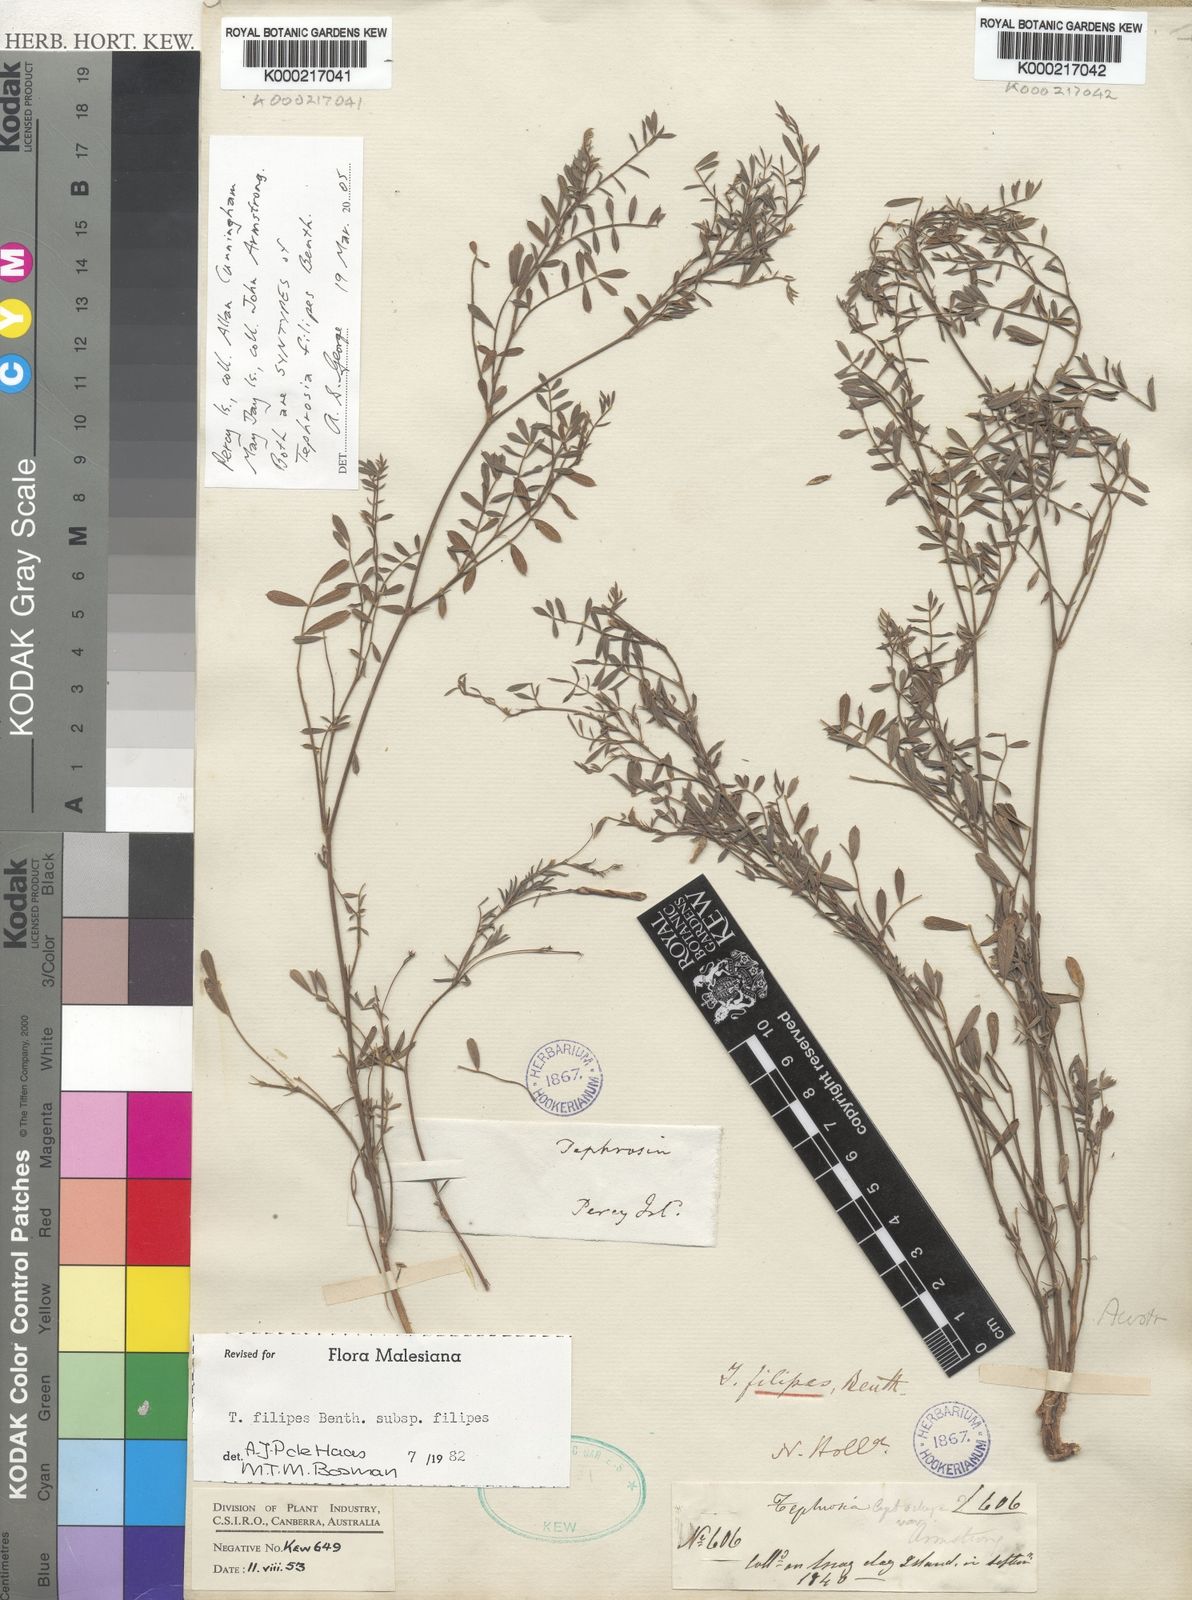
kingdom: Plantae
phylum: Tracheophyta
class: Magnoliopsida
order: Fabales
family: Fabaceae
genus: Tephrosia
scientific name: Tephrosia filipes
